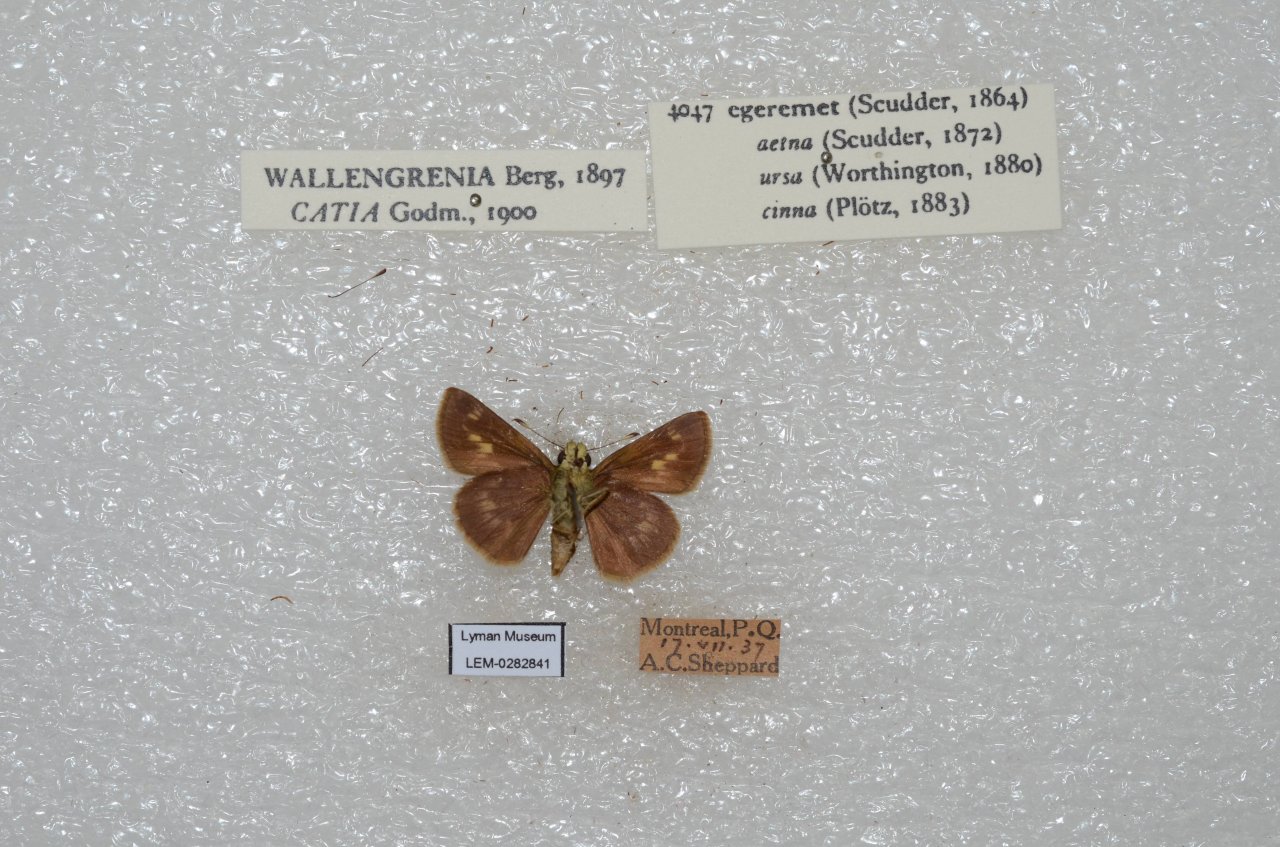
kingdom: Animalia
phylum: Arthropoda
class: Insecta
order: Lepidoptera
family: Hesperiidae
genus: Polites
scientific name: Polites egeremet
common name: Northern Broken-Dash
